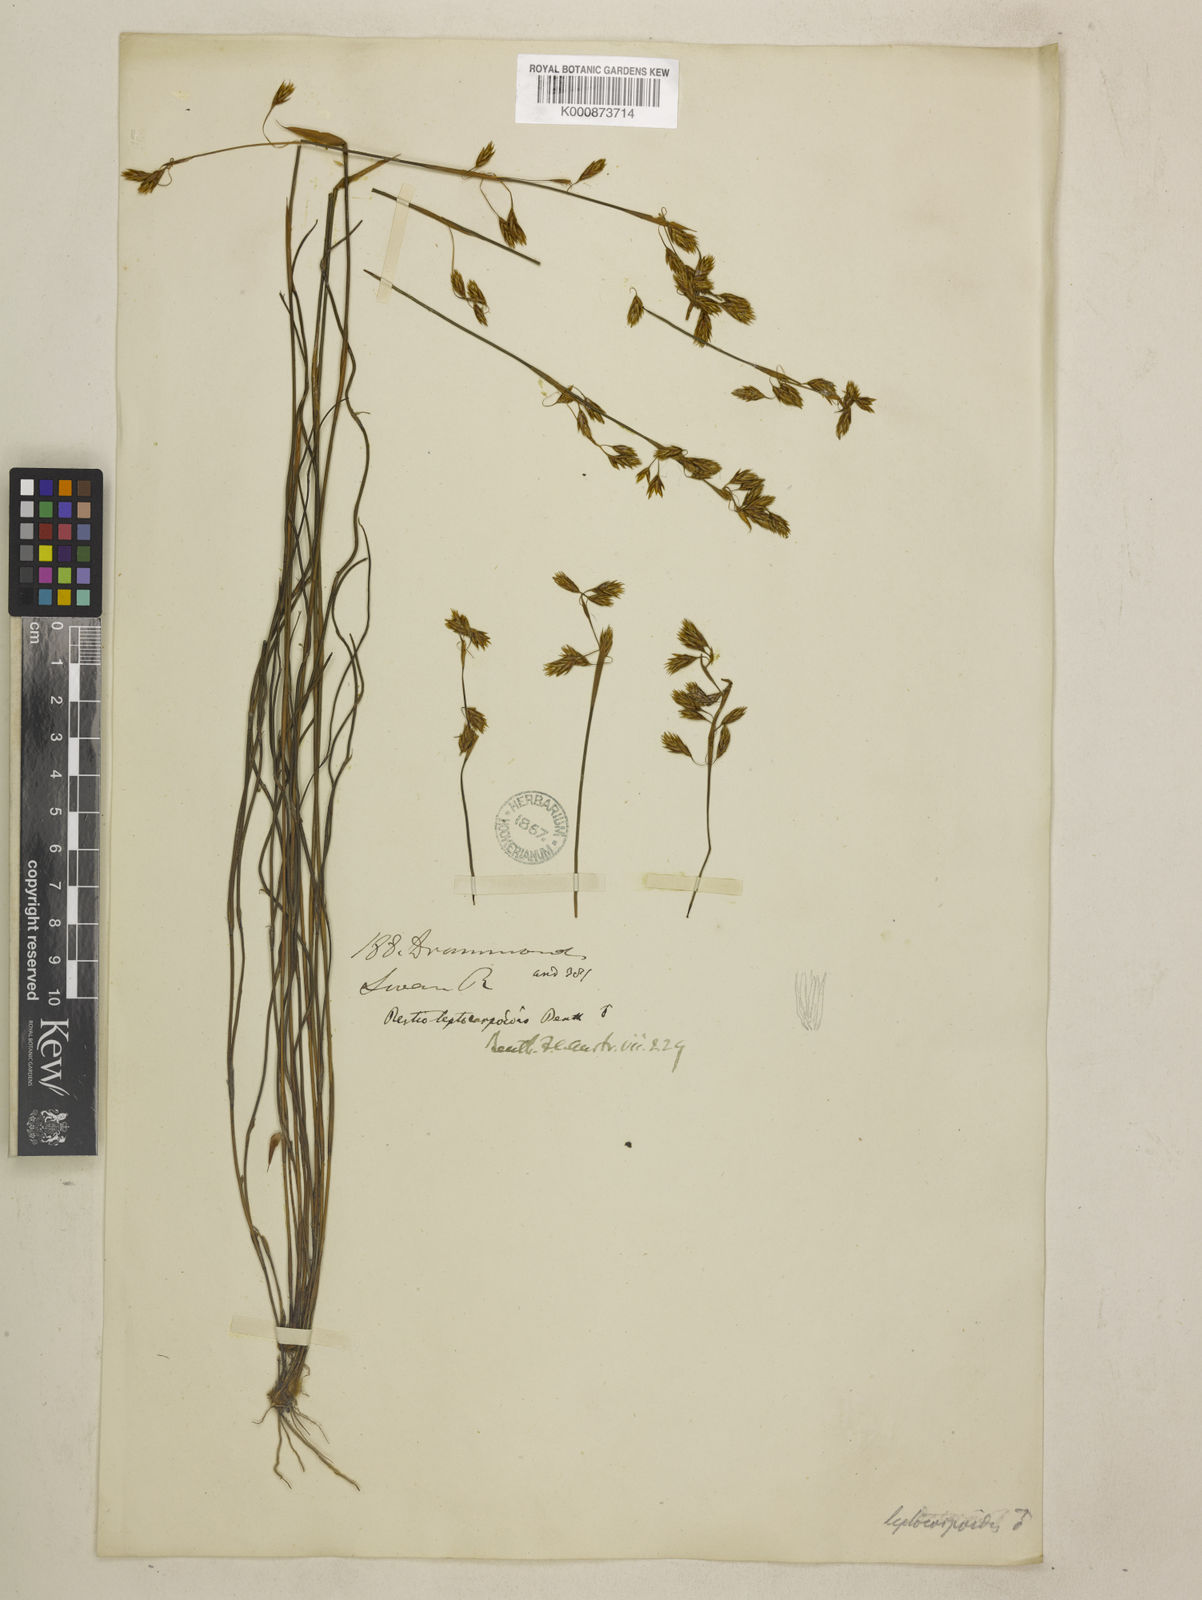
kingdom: Plantae
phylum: Tracheophyta
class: Liliopsida
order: Poales
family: Restionaceae
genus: Cytogonidium
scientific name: Cytogonidium leptocarpoides
